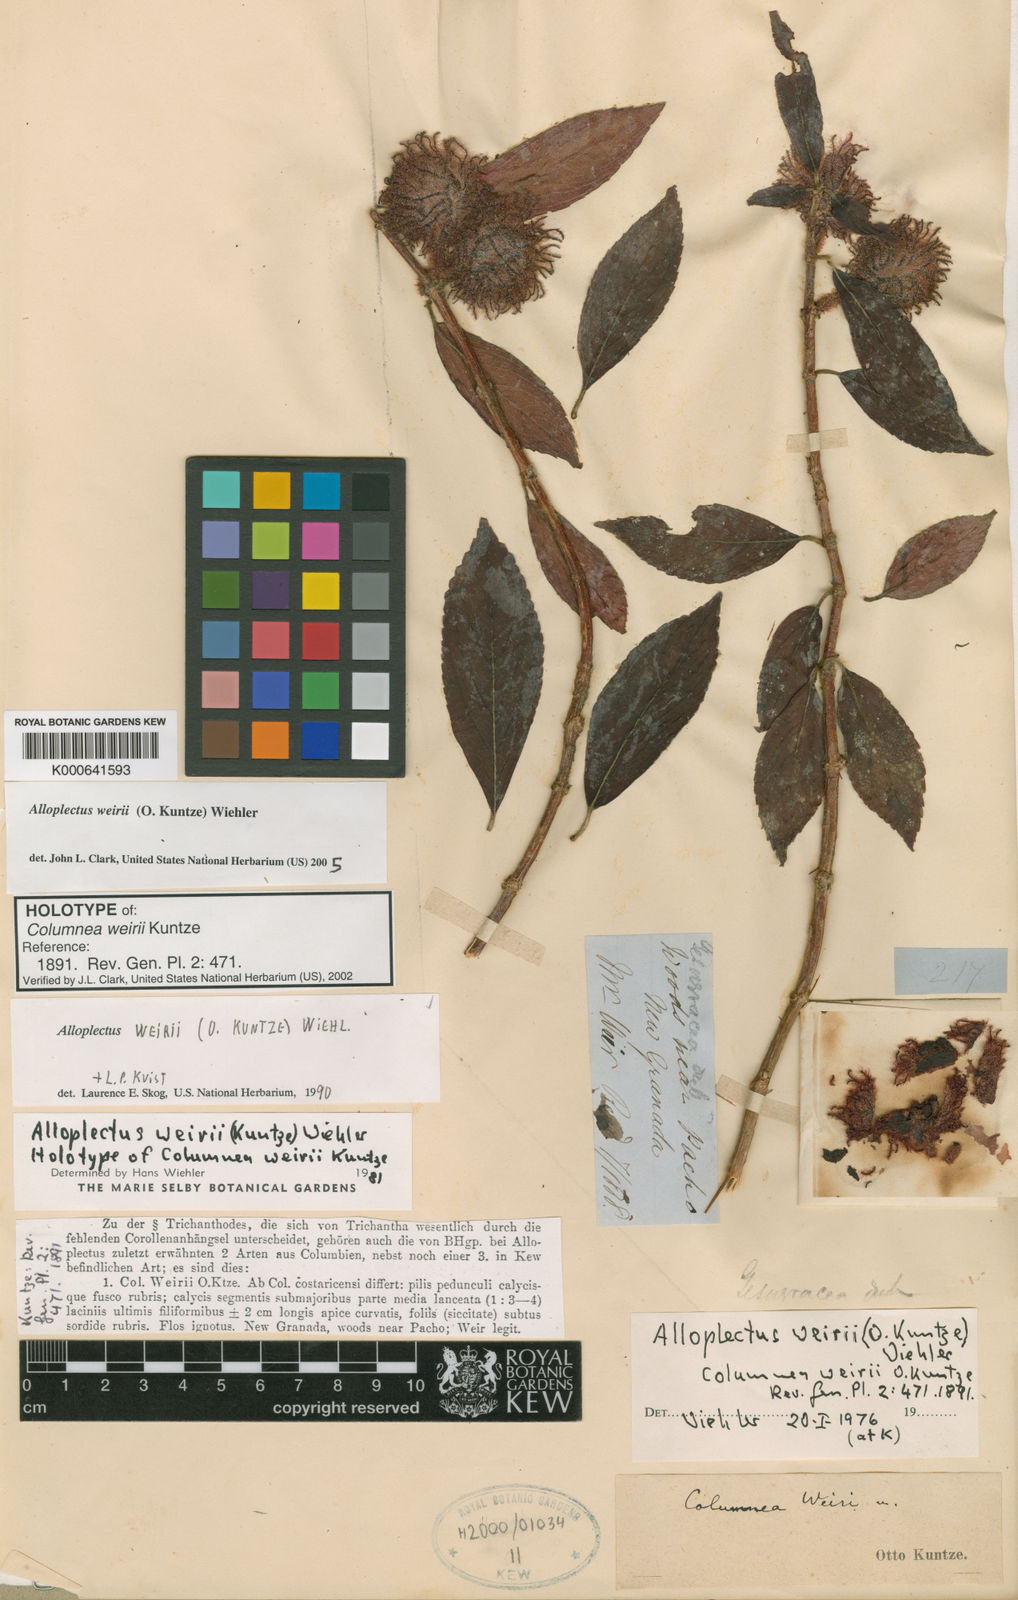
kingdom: Plantae
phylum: Tracheophyta
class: Magnoliopsida
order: Lamiales
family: Gesneriaceae
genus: Alloplectus
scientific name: Alloplectus weirii
